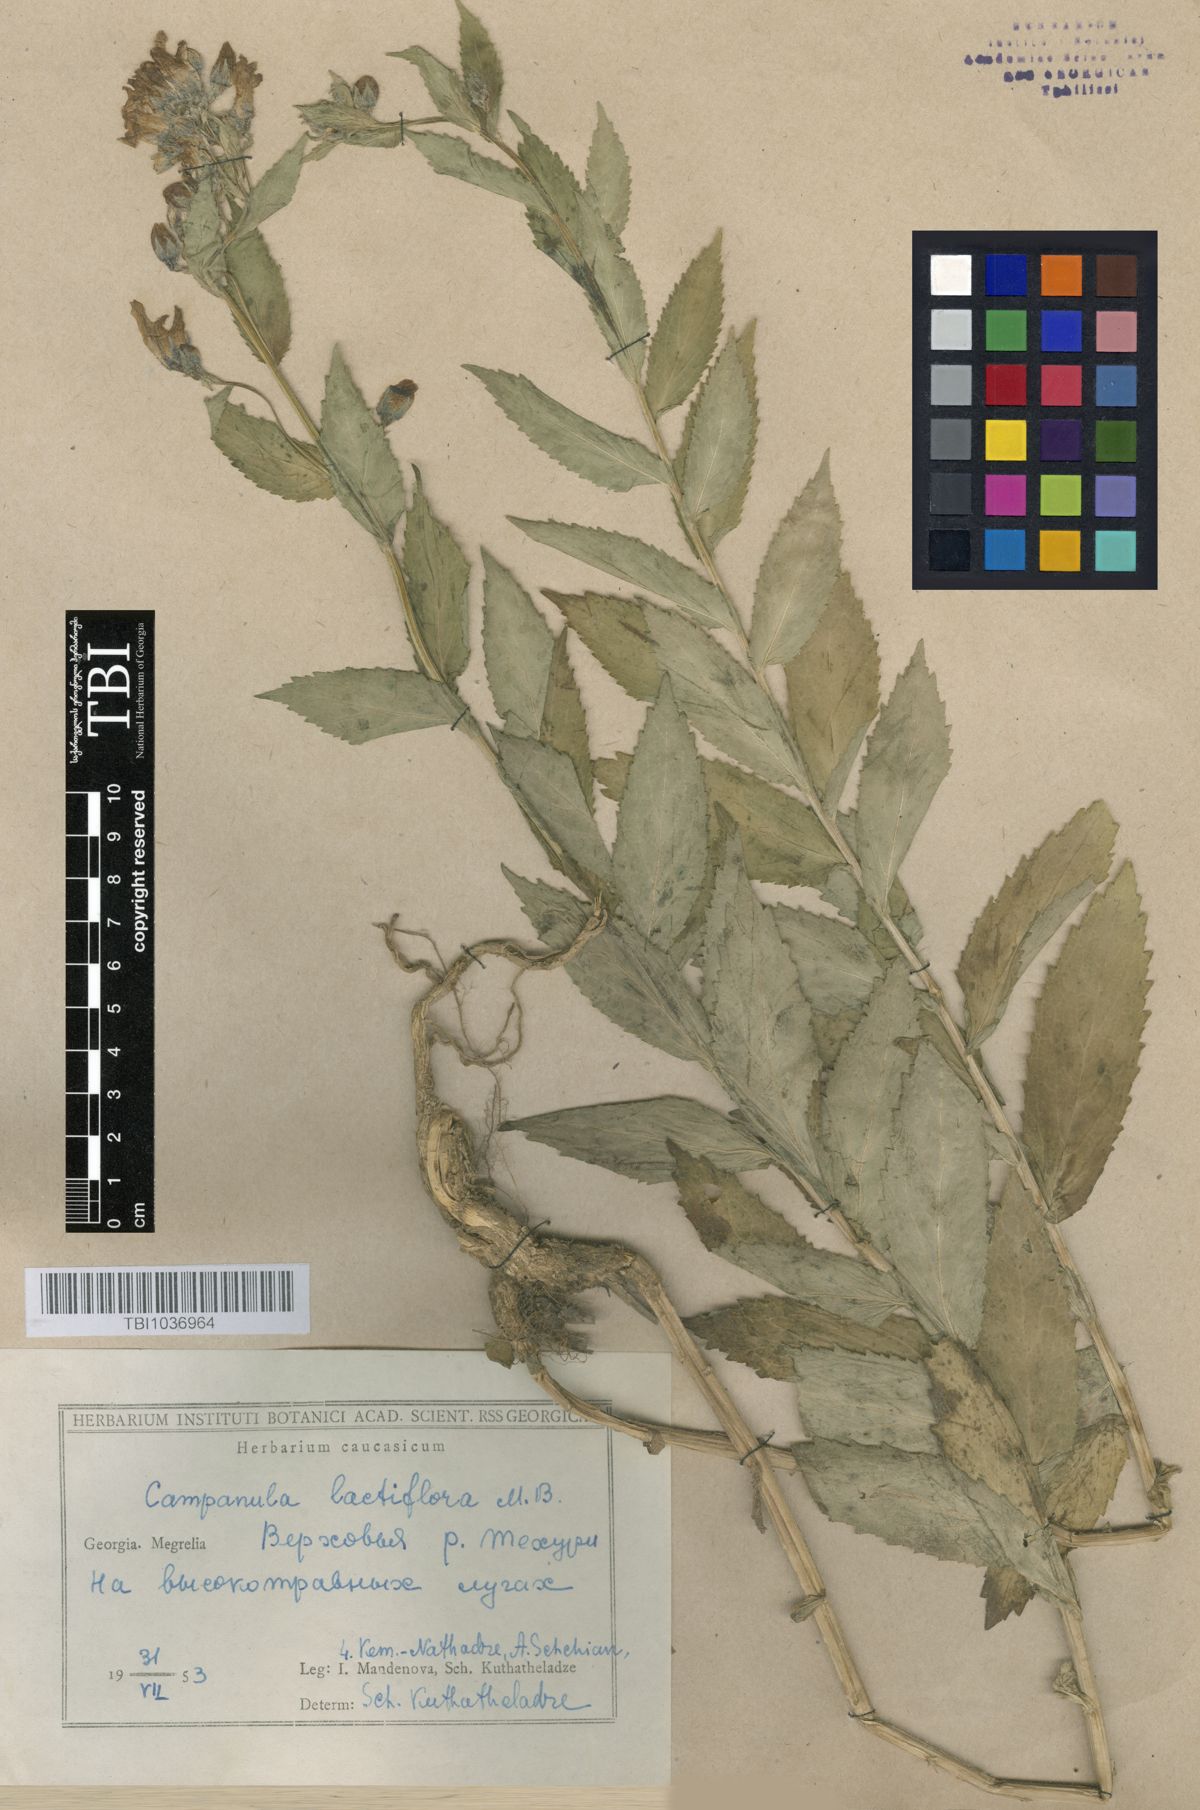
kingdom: Plantae
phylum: Tracheophyta
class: Magnoliopsida
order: Asterales
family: Campanulaceae
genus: Campanula
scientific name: Campanula lactiflora
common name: Milky bellflower
